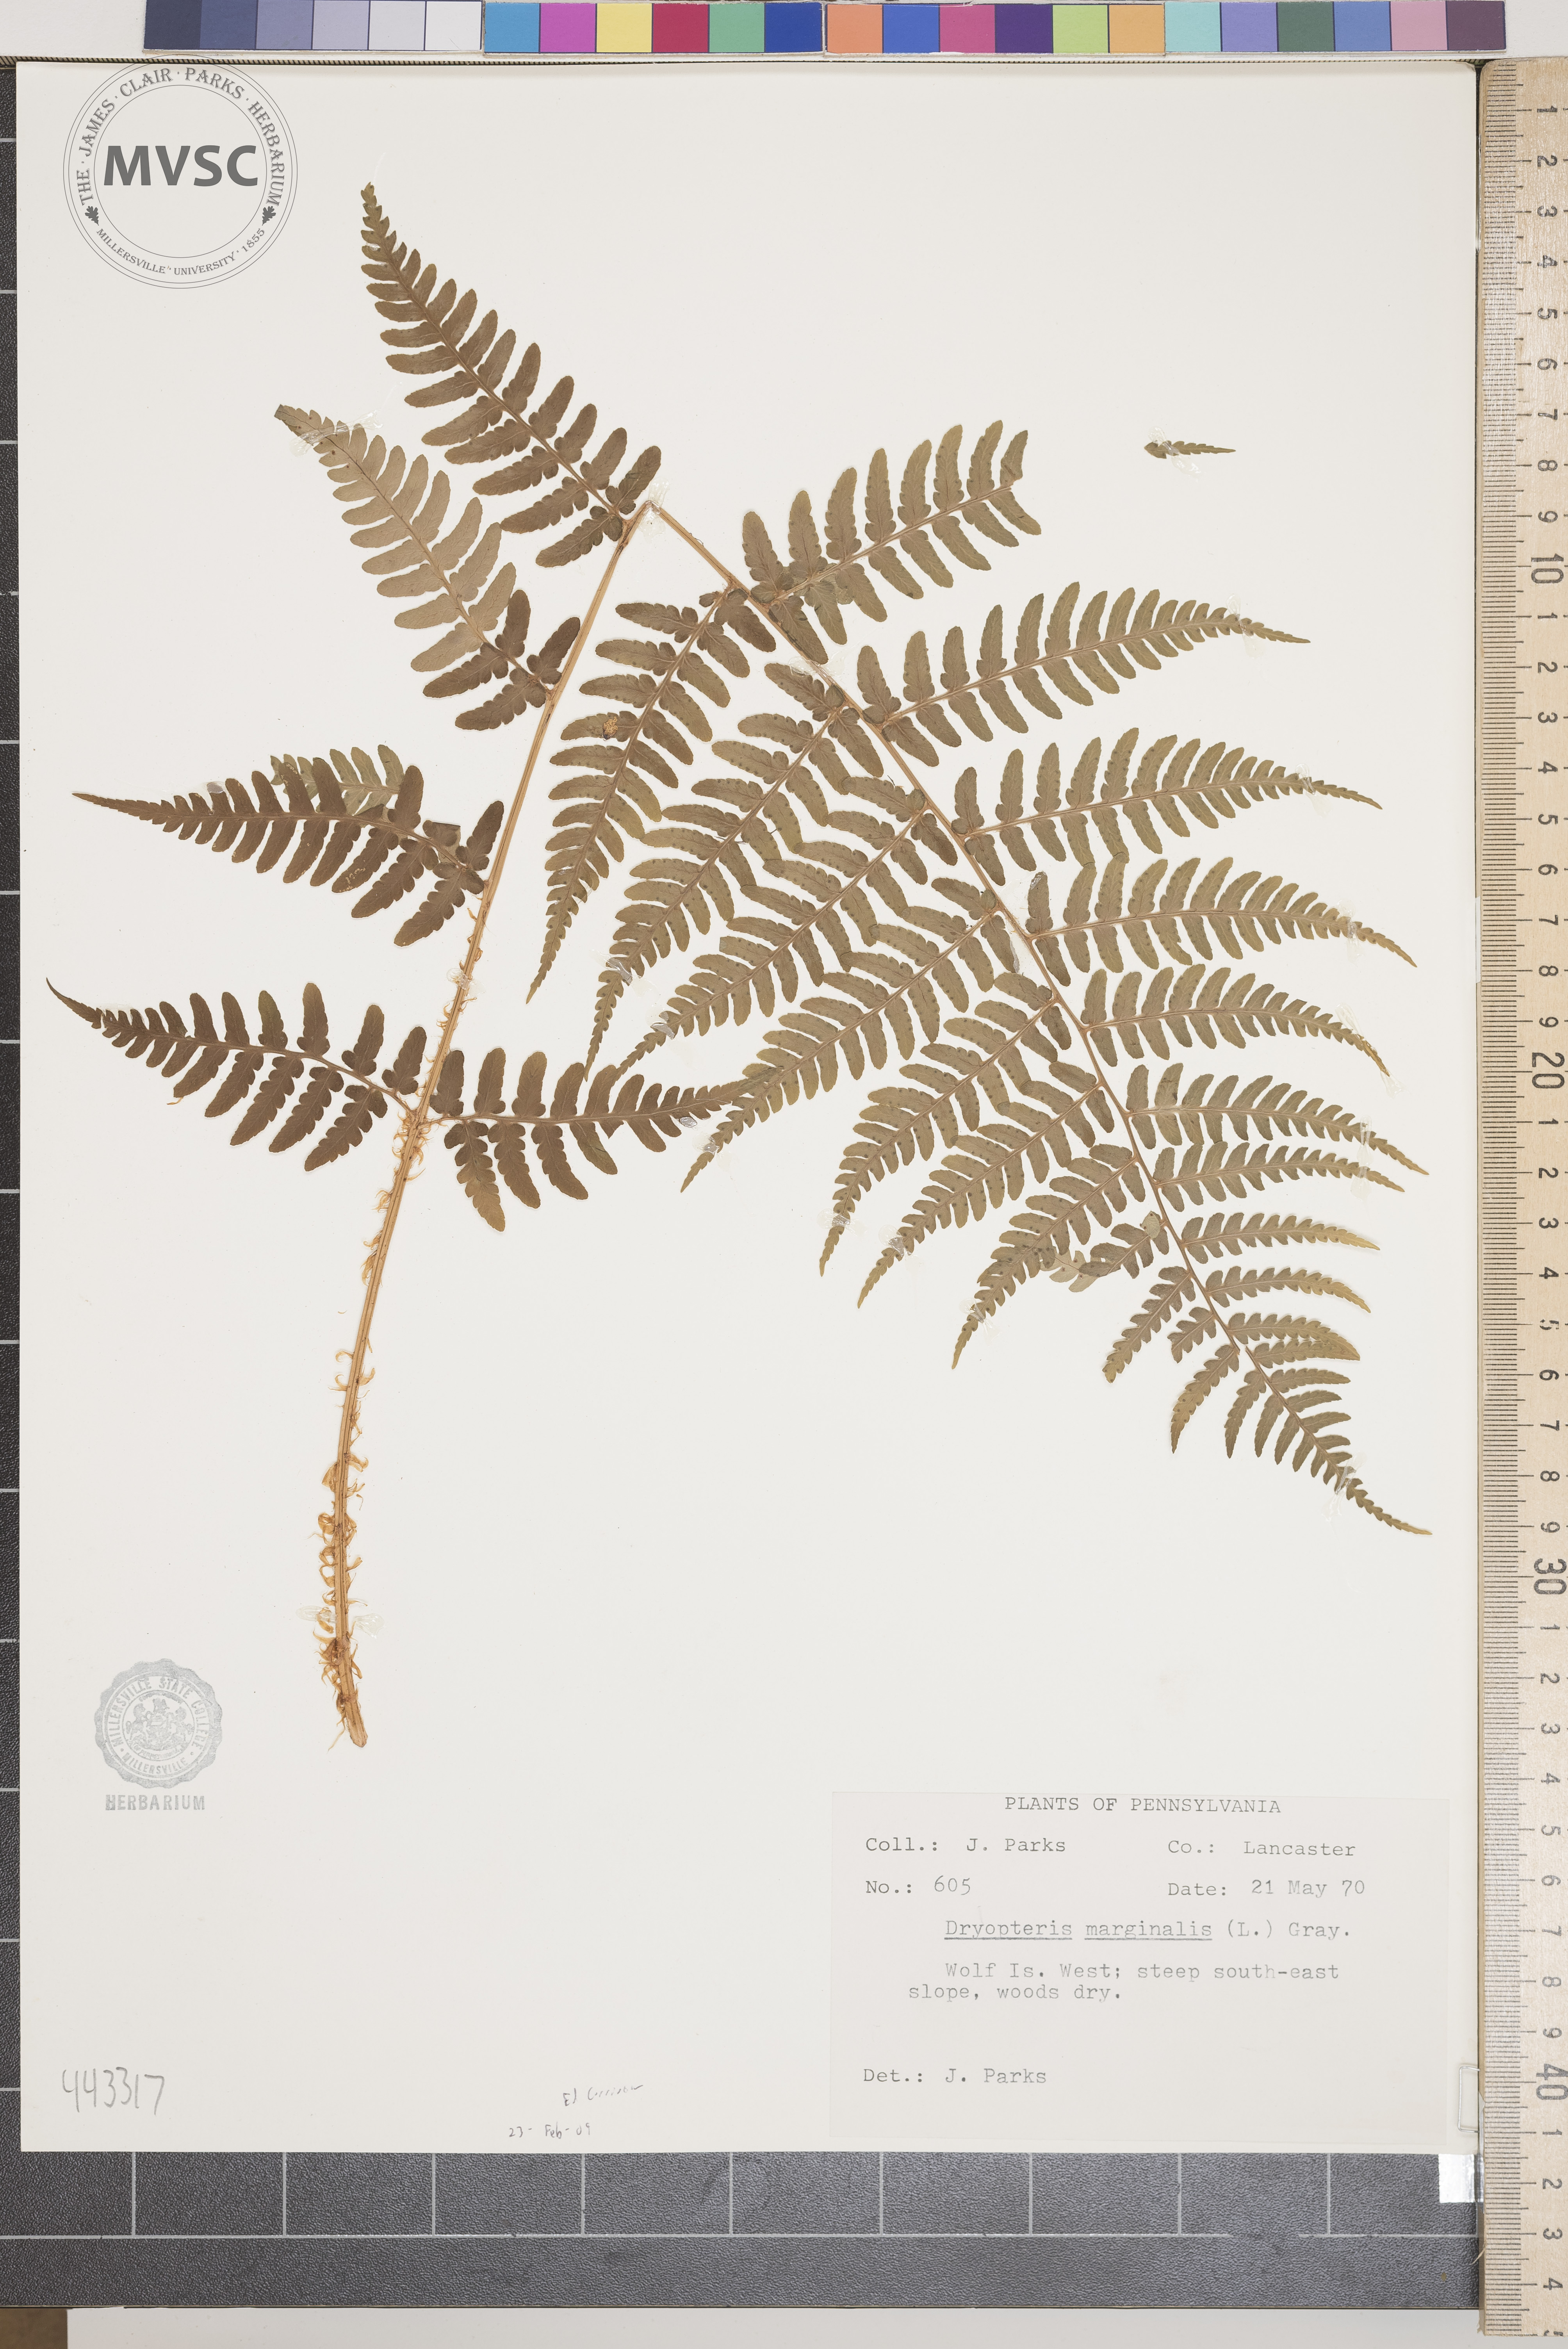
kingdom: Plantae
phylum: Tracheophyta
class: Polypodiopsida
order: Polypodiales
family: Dryopteridaceae
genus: Dryopteris
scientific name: Dryopteris marginalis
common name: Marginal wood fern
